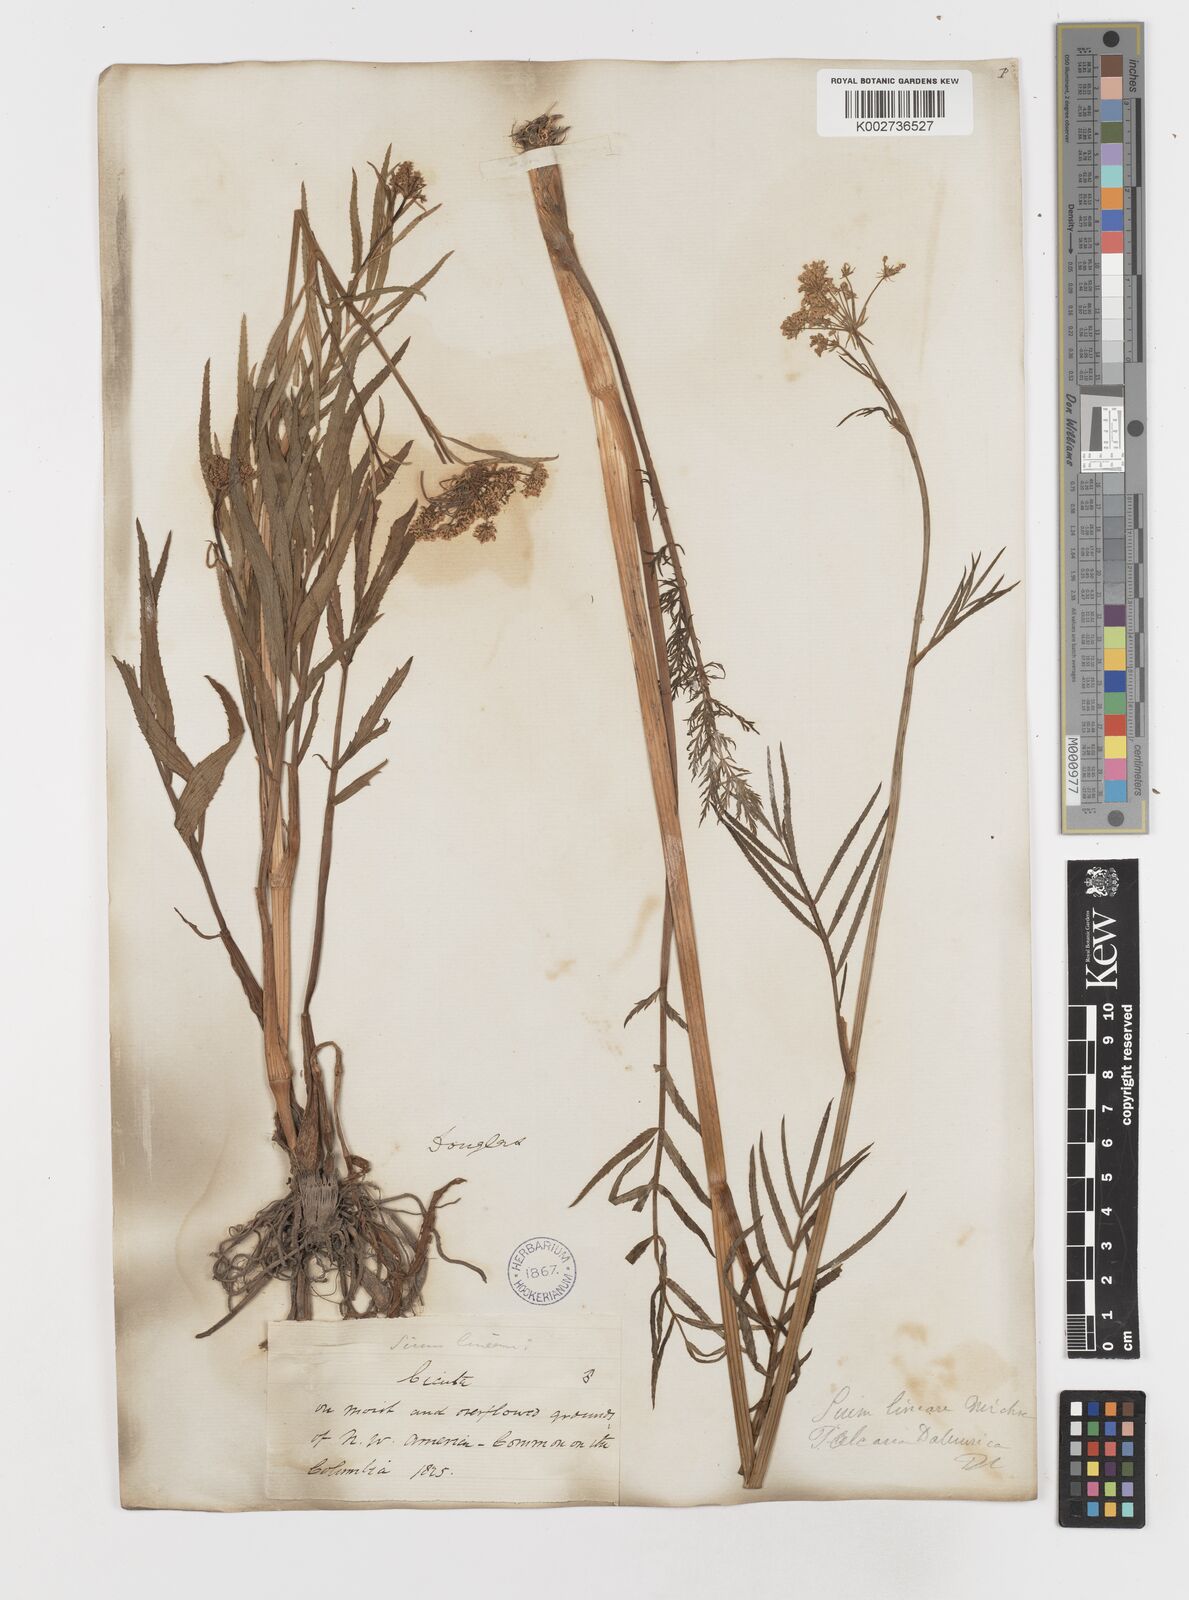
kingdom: Plantae
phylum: Tracheophyta
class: Magnoliopsida
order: Apiales
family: Apiaceae
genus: Sium
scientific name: Sium suave
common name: Hemlock water-parsnip
